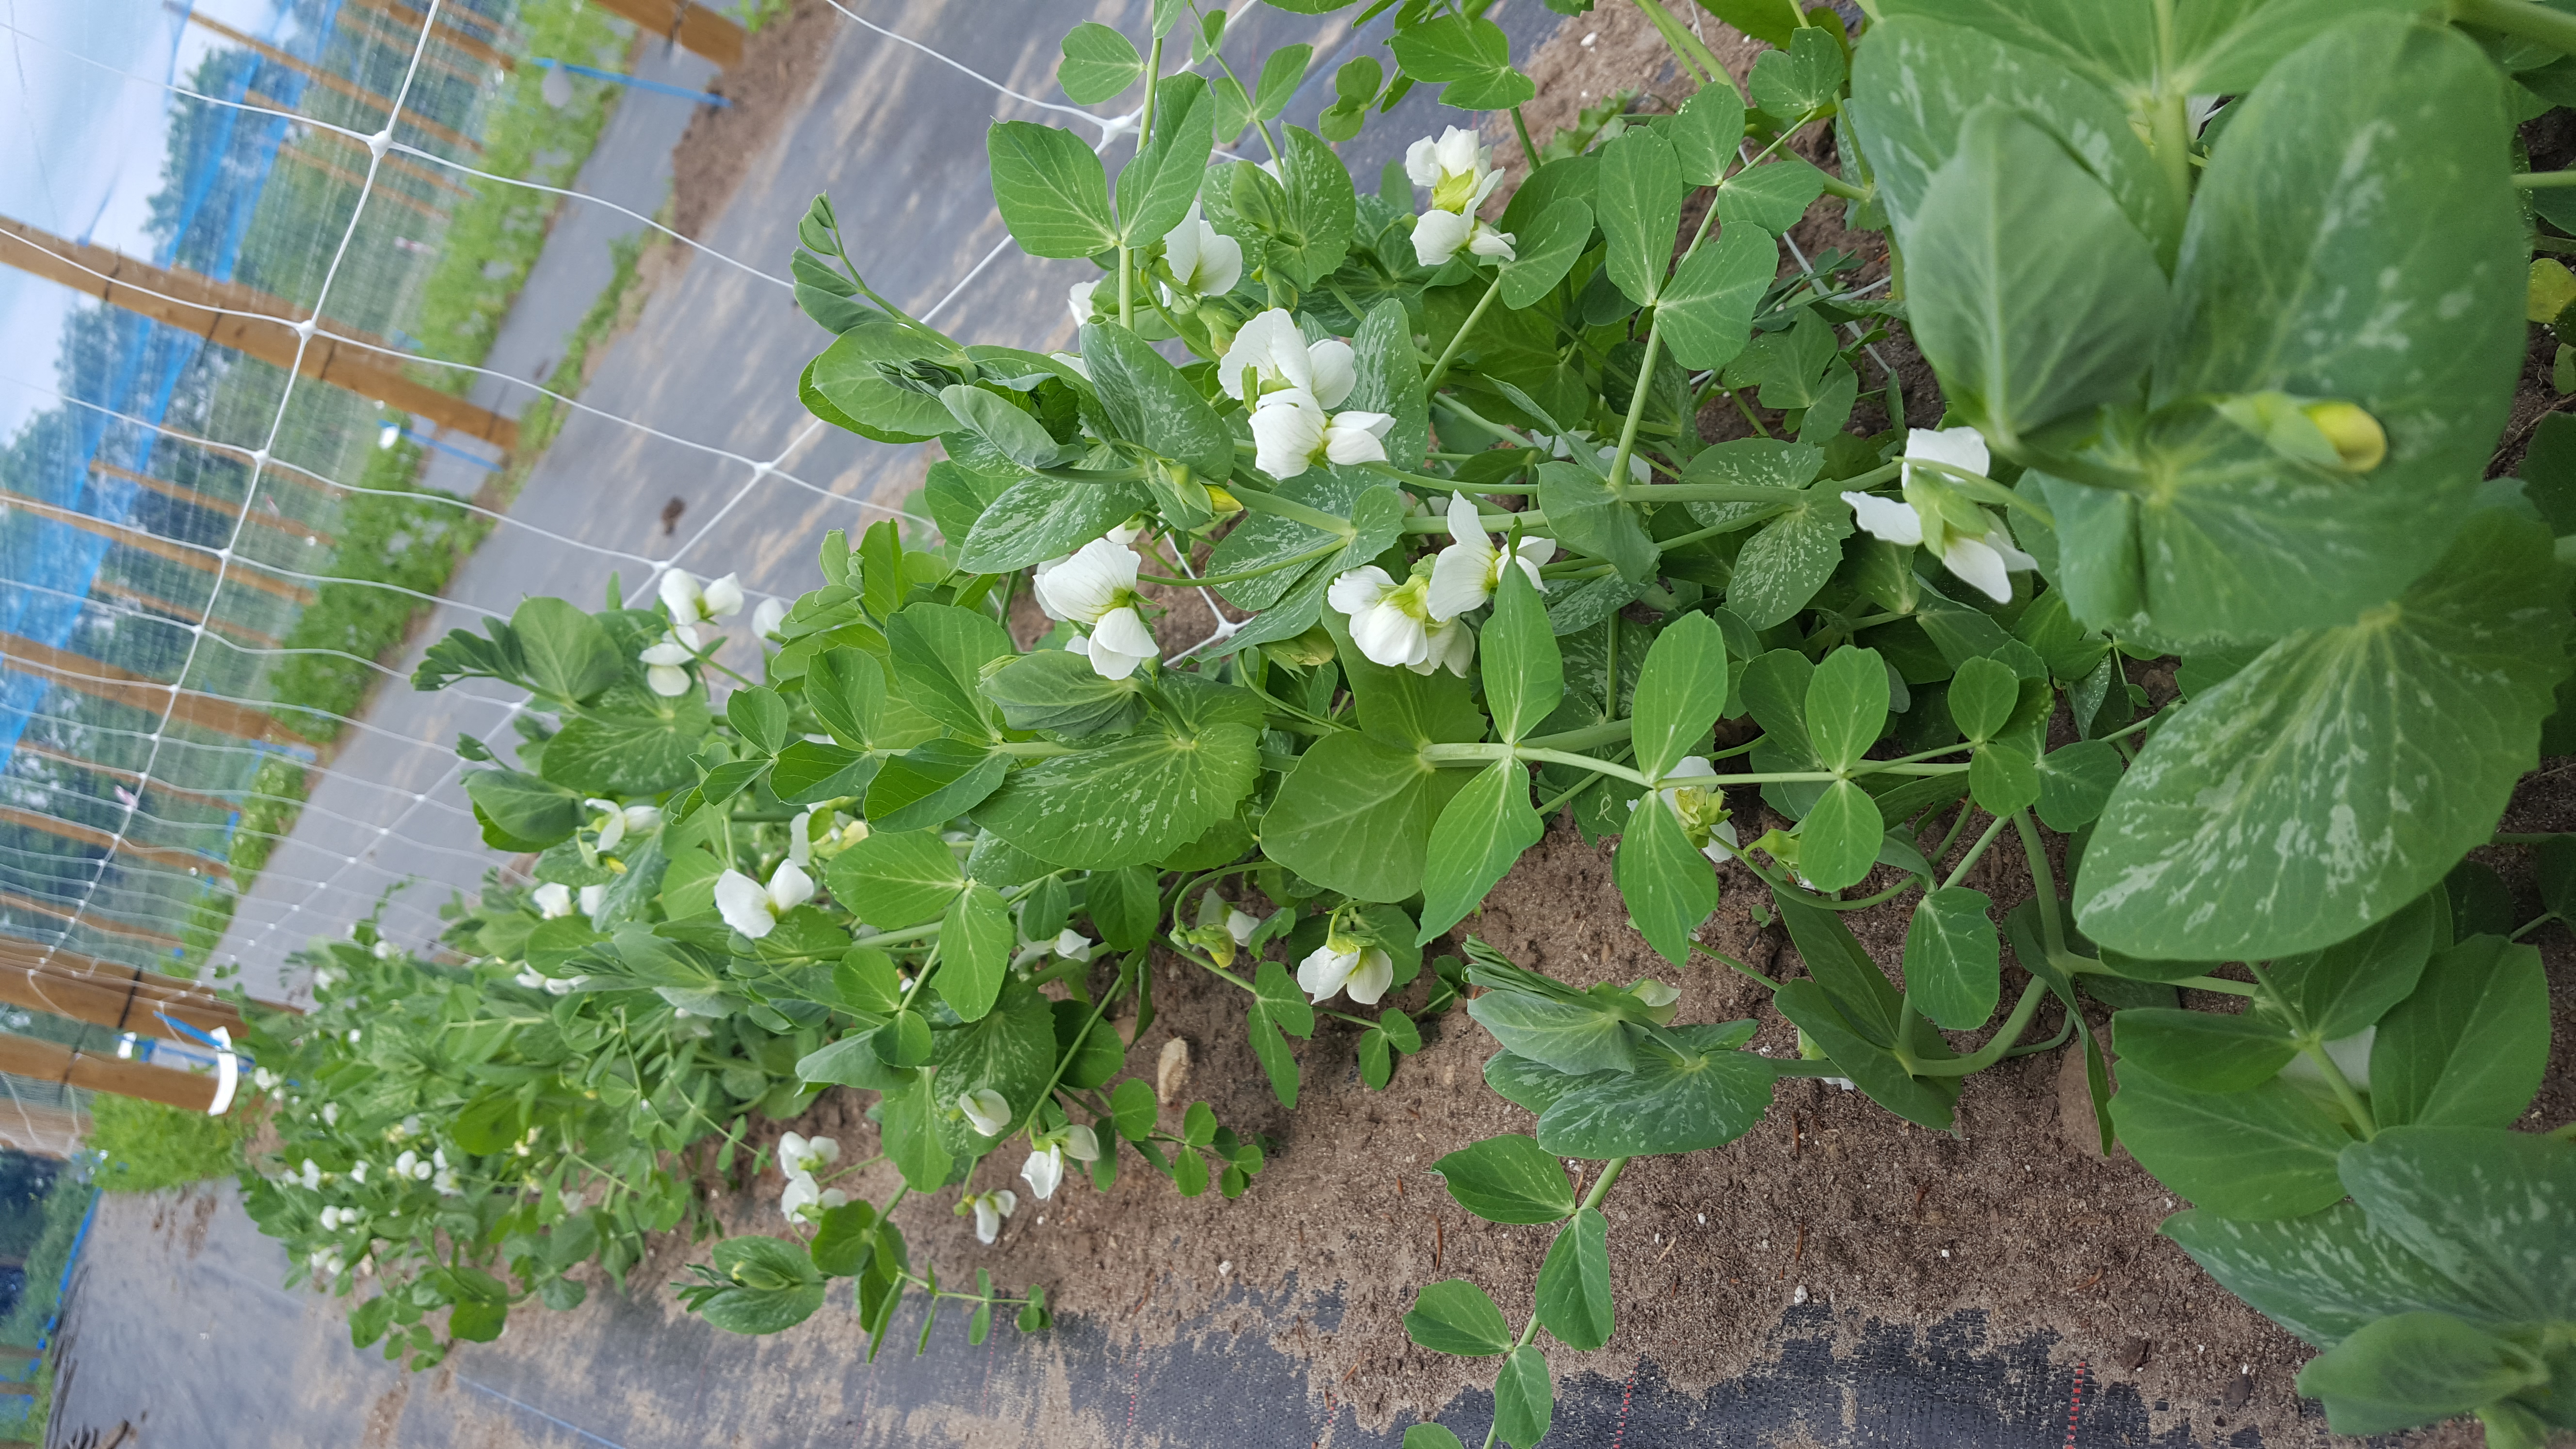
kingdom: Plantae
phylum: Tracheophyta
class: Magnoliopsida
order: Fabales
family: Fabaceae
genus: Lathyrus
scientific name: Lathyrus oleraceus
